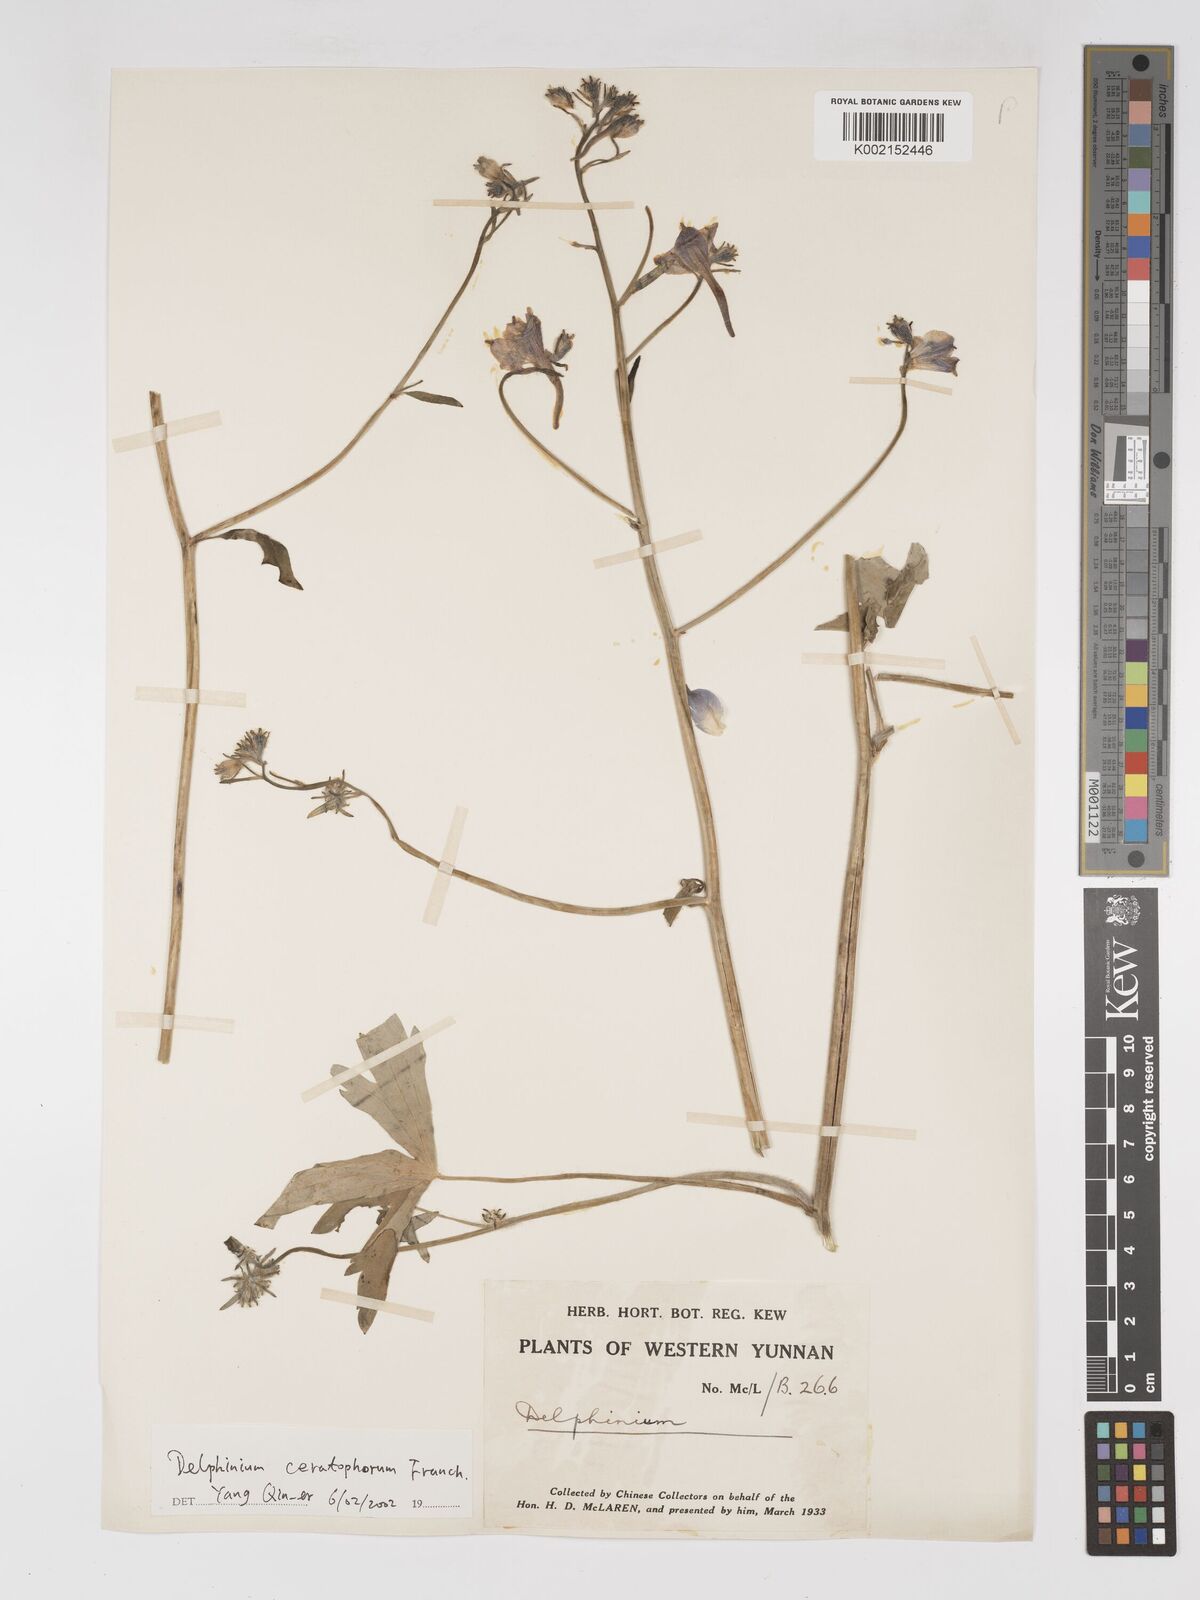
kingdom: Plantae
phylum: Tracheophyta
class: Magnoliopsida
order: Ranunculales
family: Ranunculaceae
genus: Delphinium
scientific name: Delphinium ceratophorum
